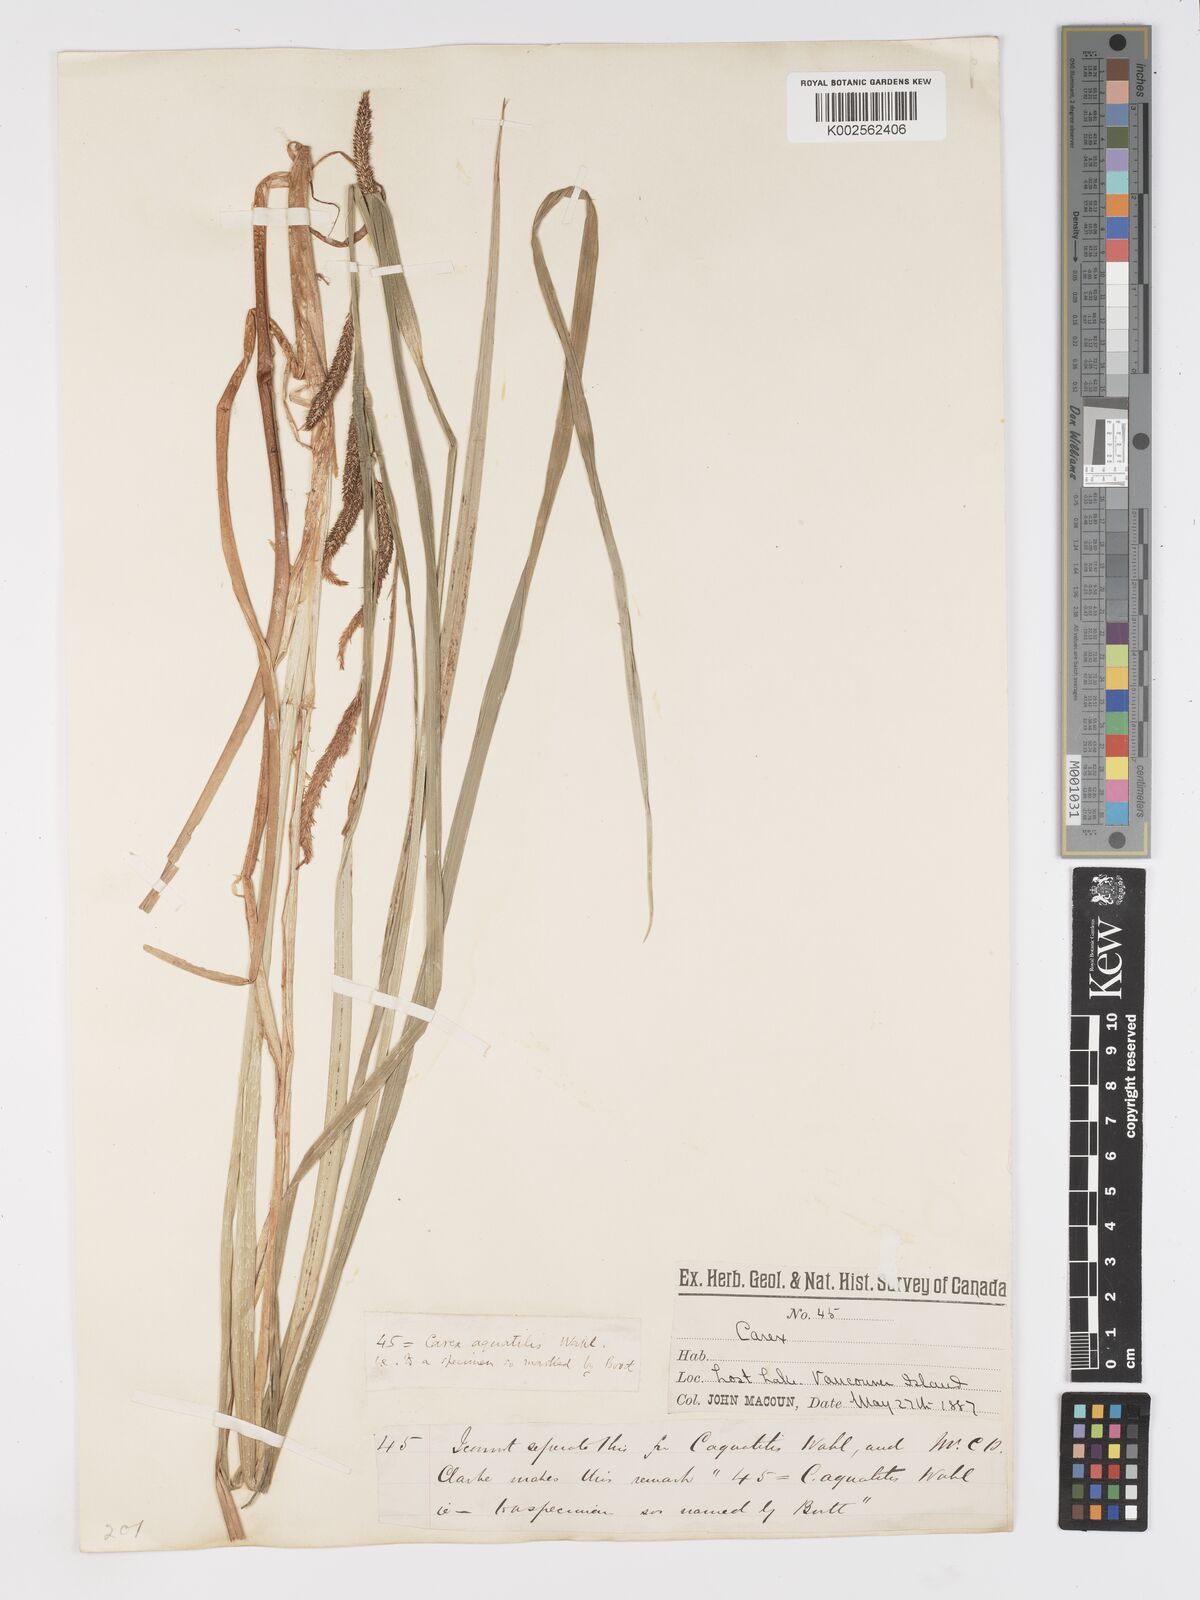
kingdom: Plantae
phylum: Tracheophyta
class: Liliopsida
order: Poales
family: Cyperaceae
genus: Carex
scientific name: Carex aquatilis
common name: Water sedge
